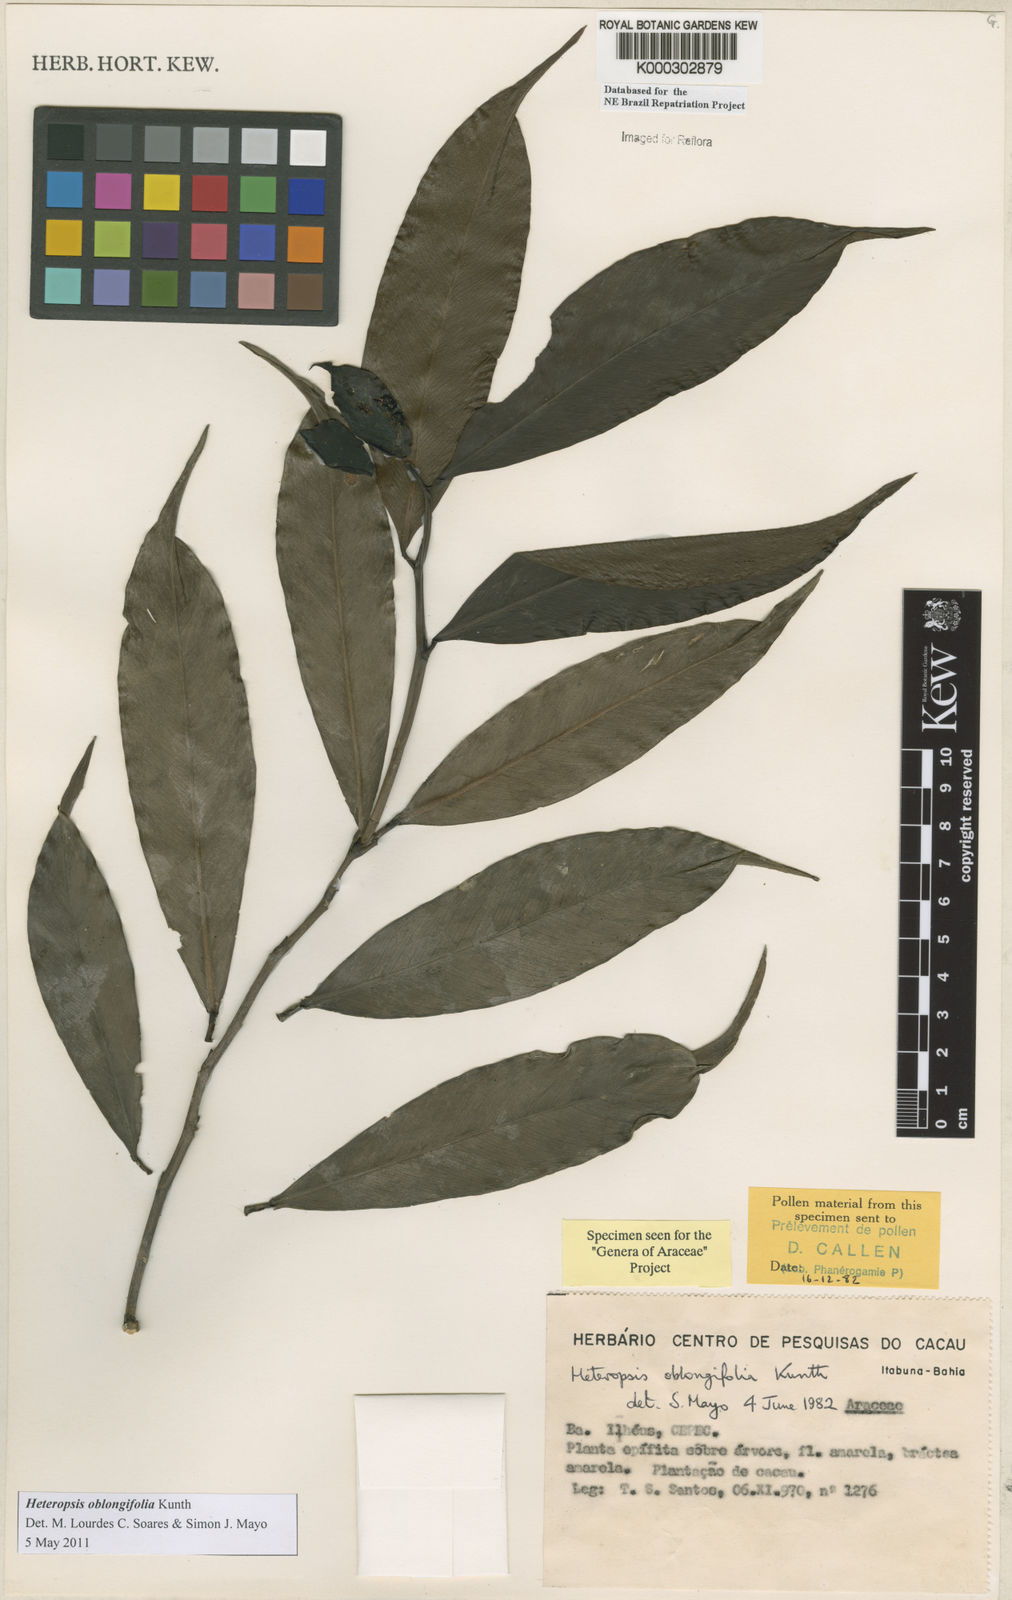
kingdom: Plantae
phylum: Tracheophyta
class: Liliopsida
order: Alismatales
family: Araceae
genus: Heteropsis
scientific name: Heteropsis oblongifolia
